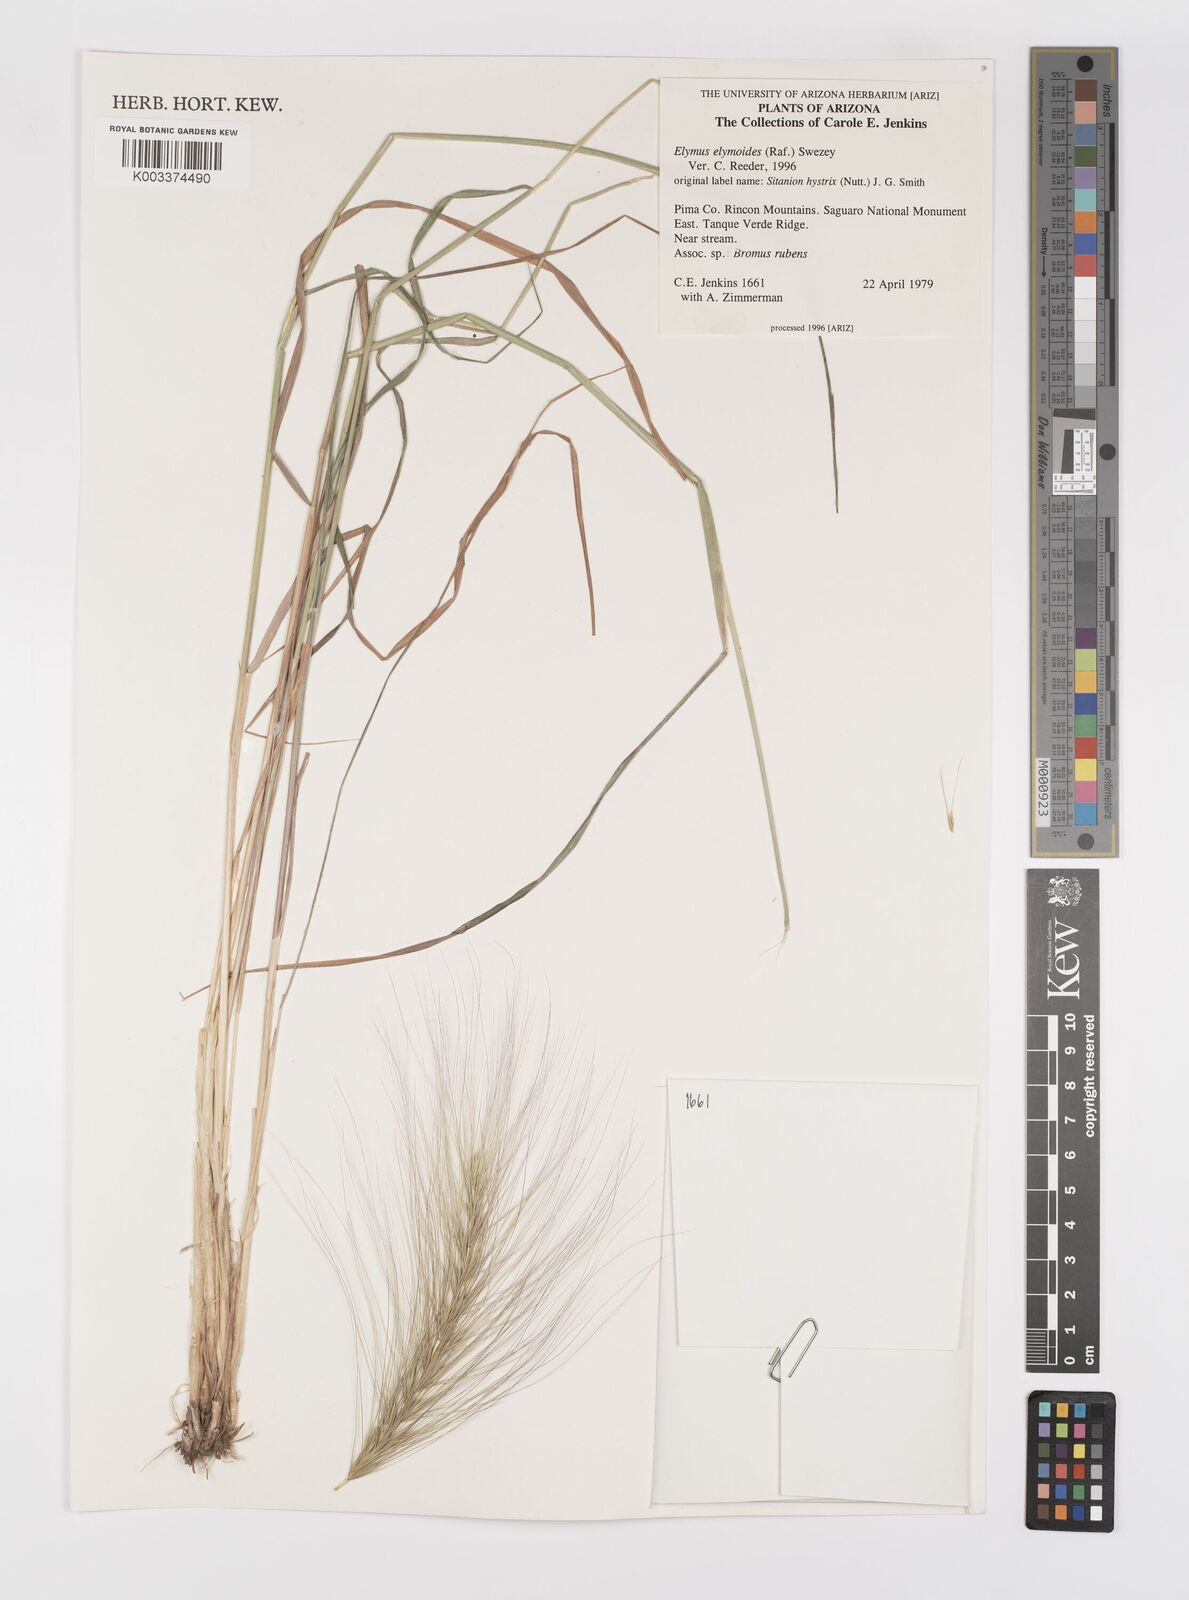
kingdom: Plantae
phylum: Tracheophyta
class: Liliopsida
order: Poales
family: Poaceae
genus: Elymus
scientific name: Elymus elymoides
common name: Bottlebrush squirreltail
